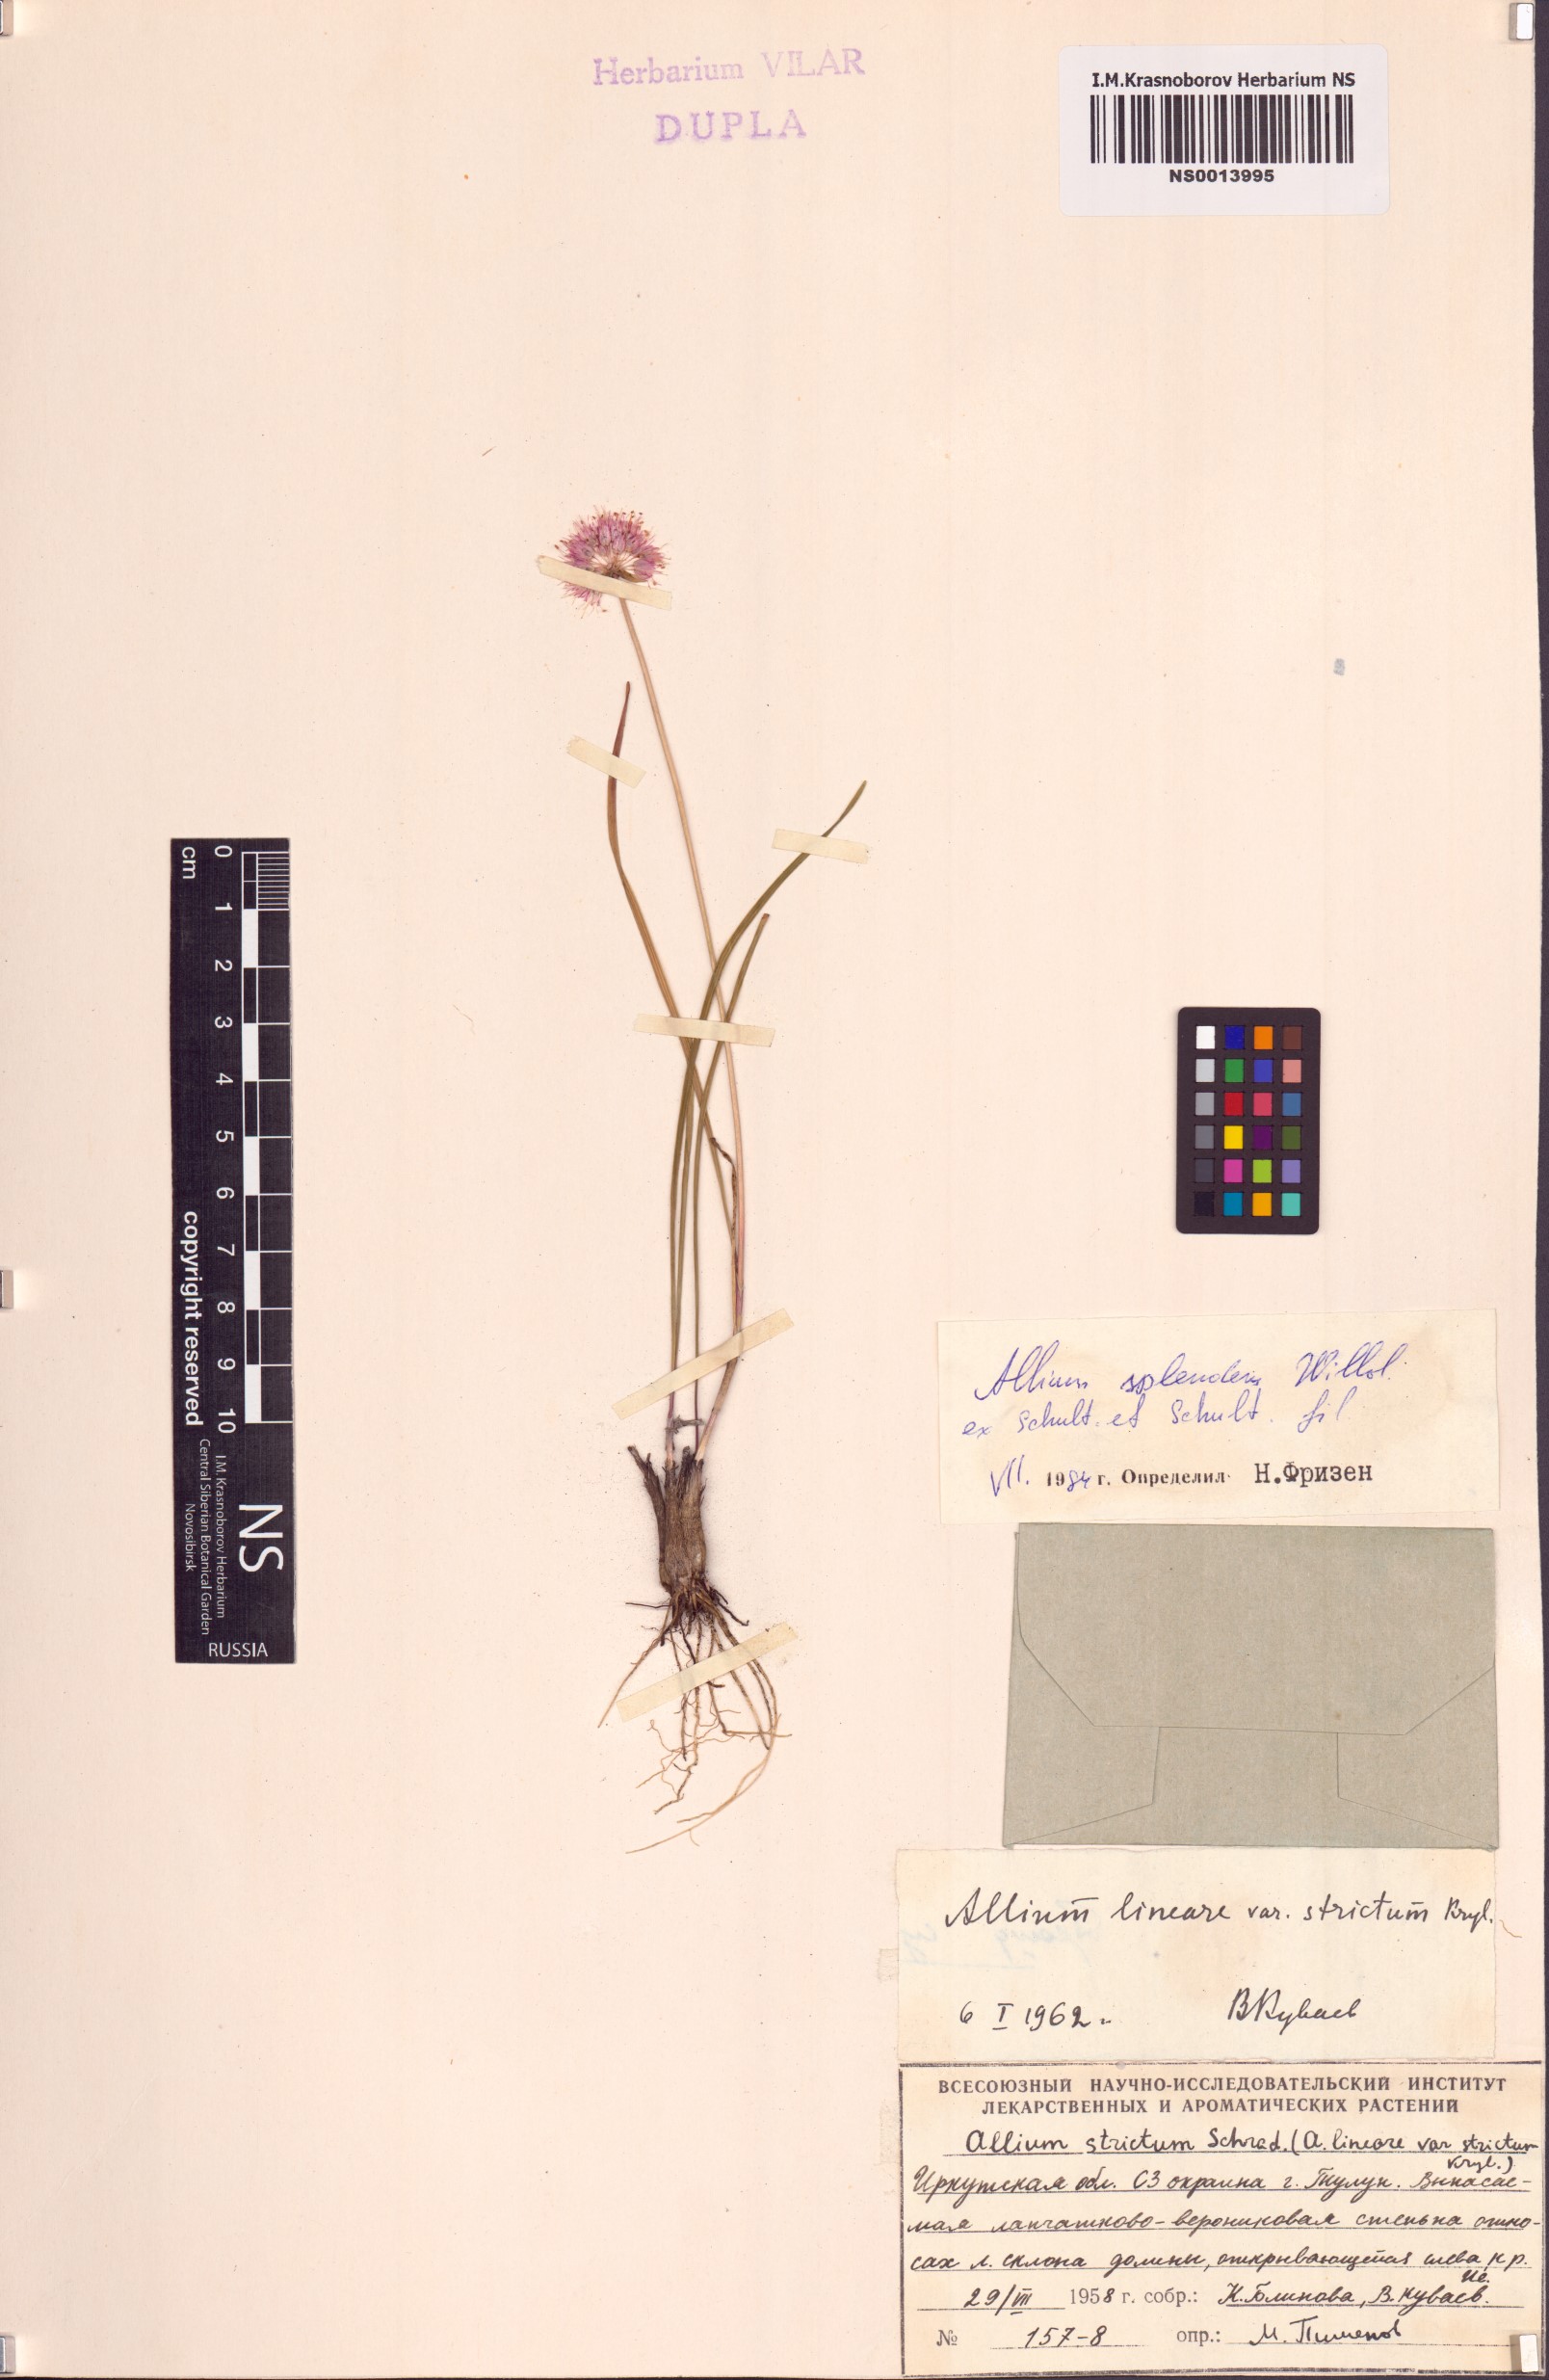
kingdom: Plantae
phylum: Tracheophyta
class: Liliopsida
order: Asparagales
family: Amaryllidaceae
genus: Allium
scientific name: Allium splendens
